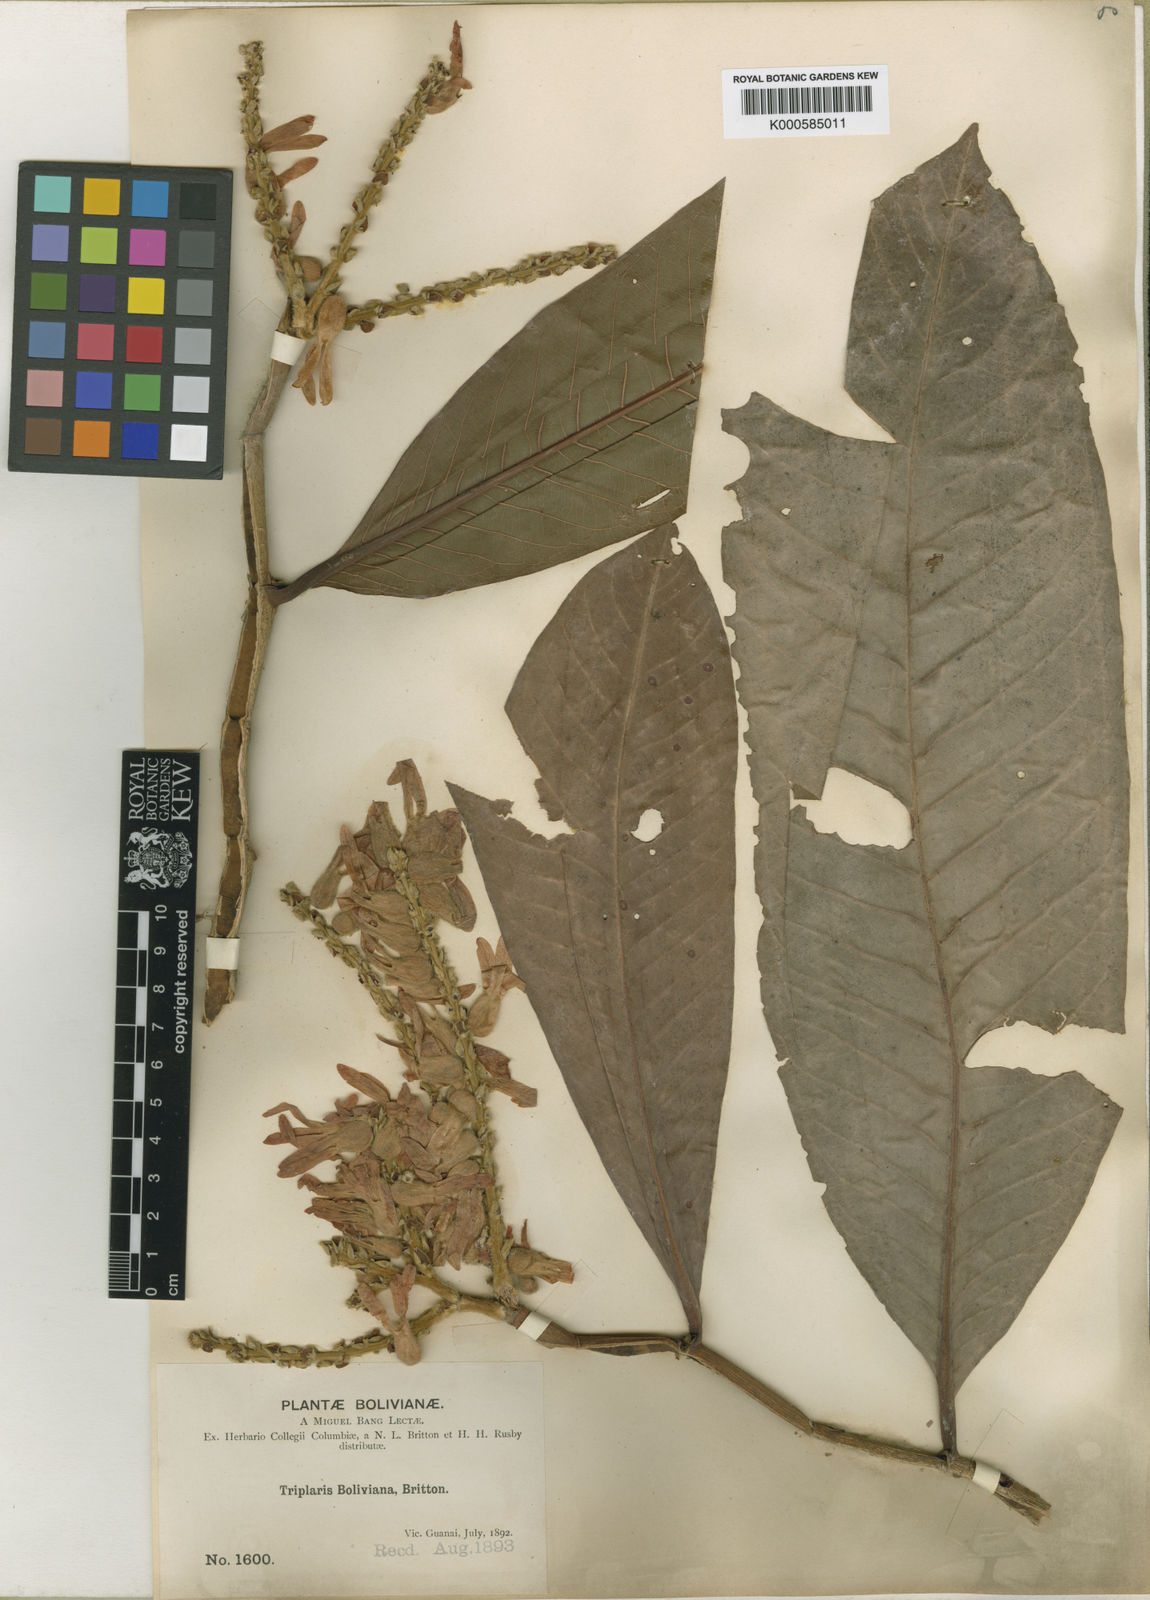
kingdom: Plantae
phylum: Tracheophyta
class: Magnoliopsida
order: Caryophyllales
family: Polygonaceae
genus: Triplaris
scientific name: Triplaris americana
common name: Ant-tree
